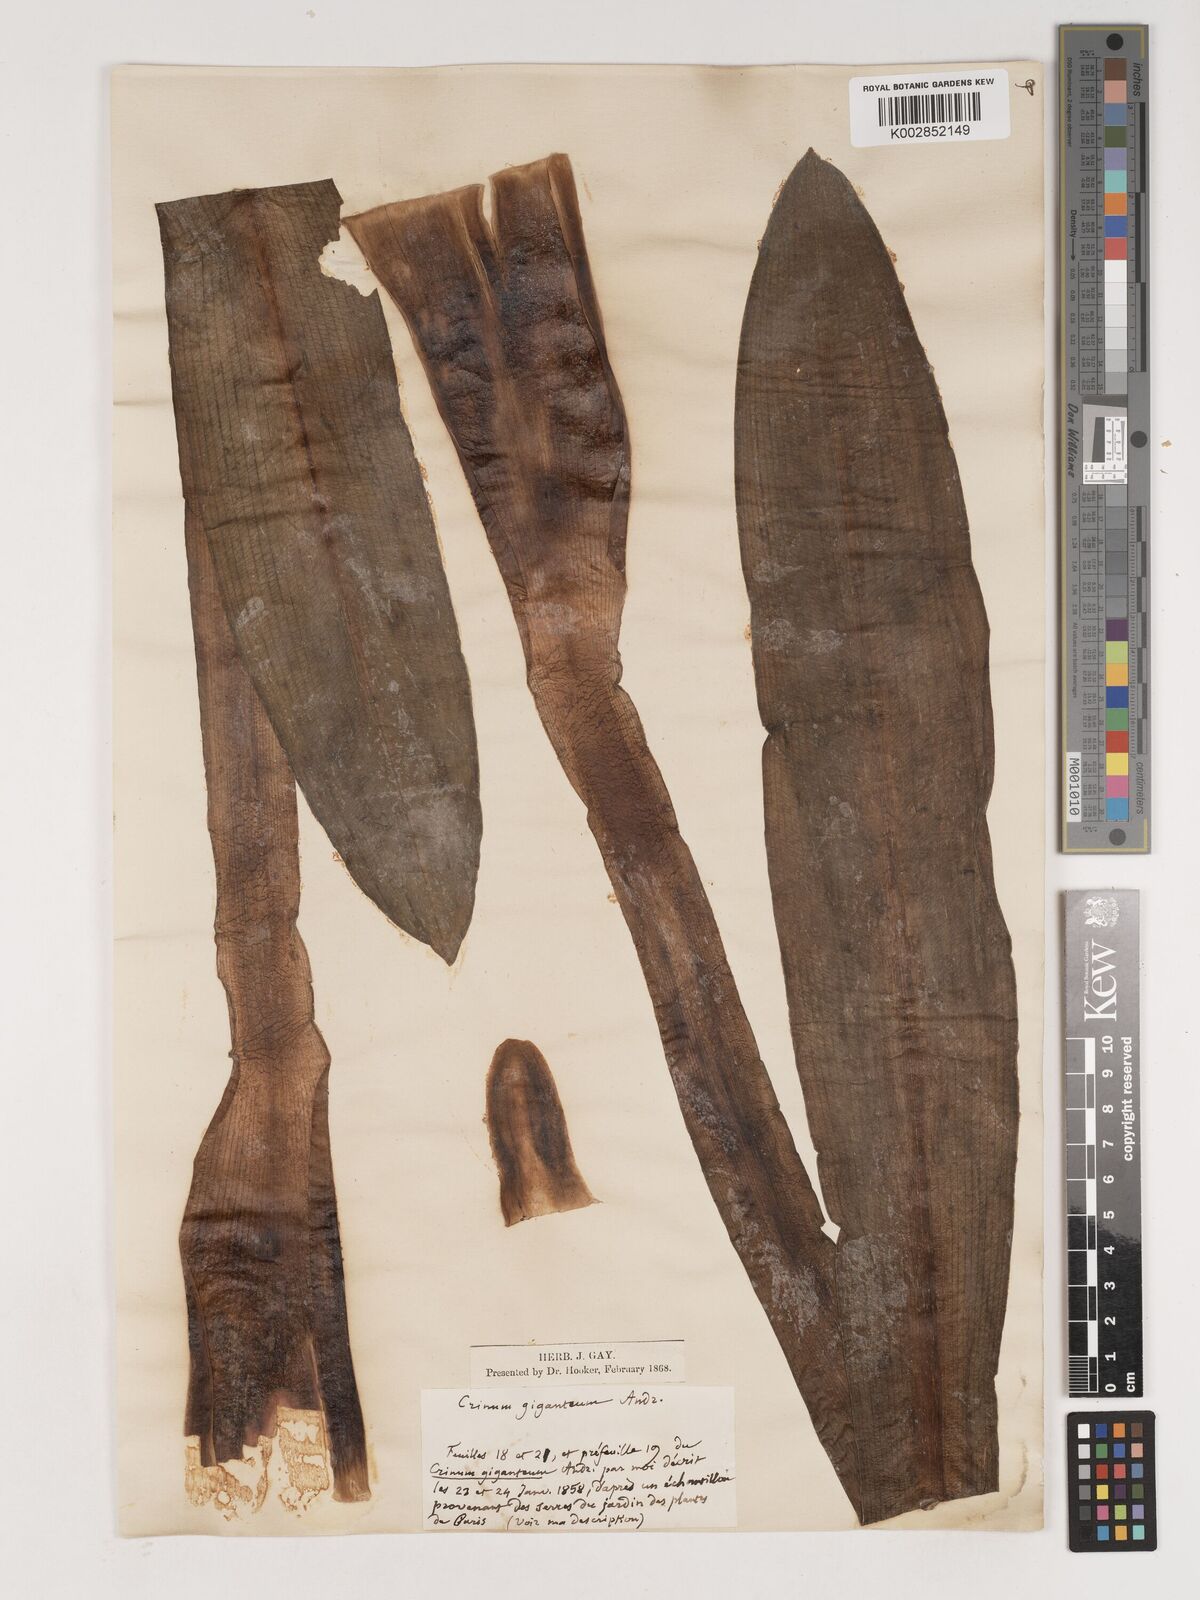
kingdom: Plantae
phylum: Tracheophyta
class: Liliopsida
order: Asparagales
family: Amaryllidaceae
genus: Crinum
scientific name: Crinum jagus
